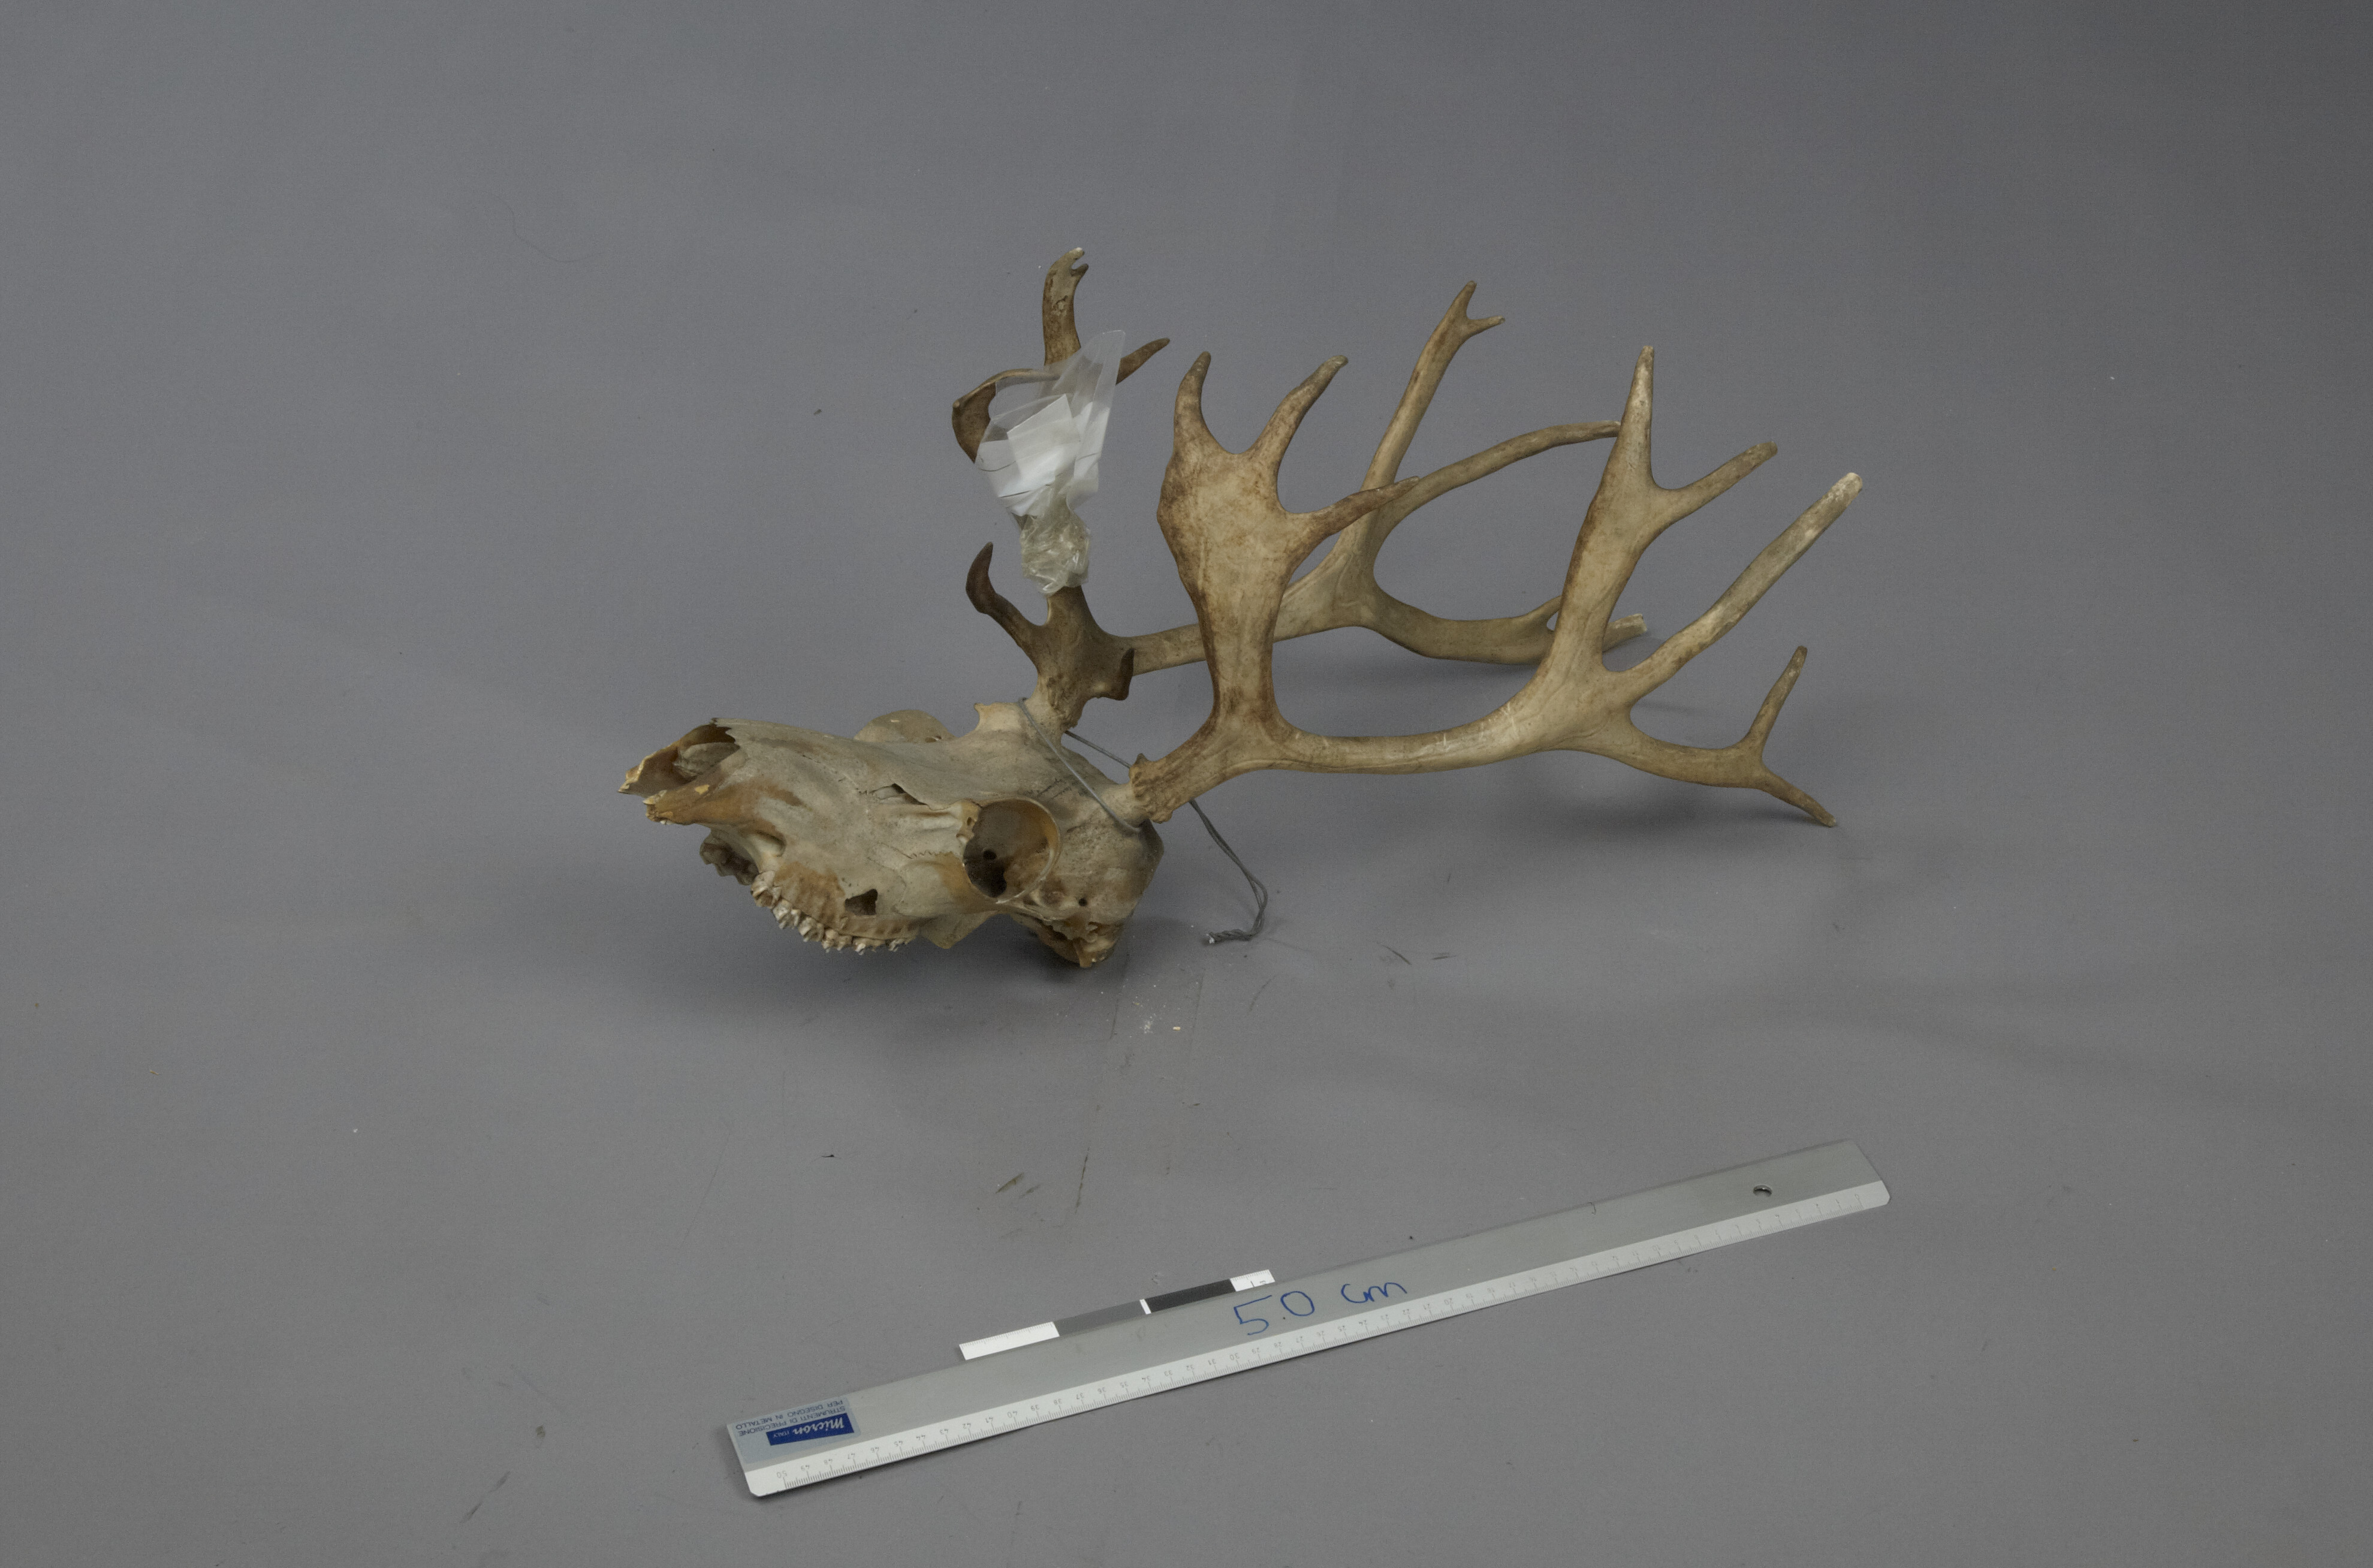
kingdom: Animalia
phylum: Chordata
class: Mammalia
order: Artiodactyla
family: Cervidae
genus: Rangifer
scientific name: Rangifer tarandus
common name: Reindeer
